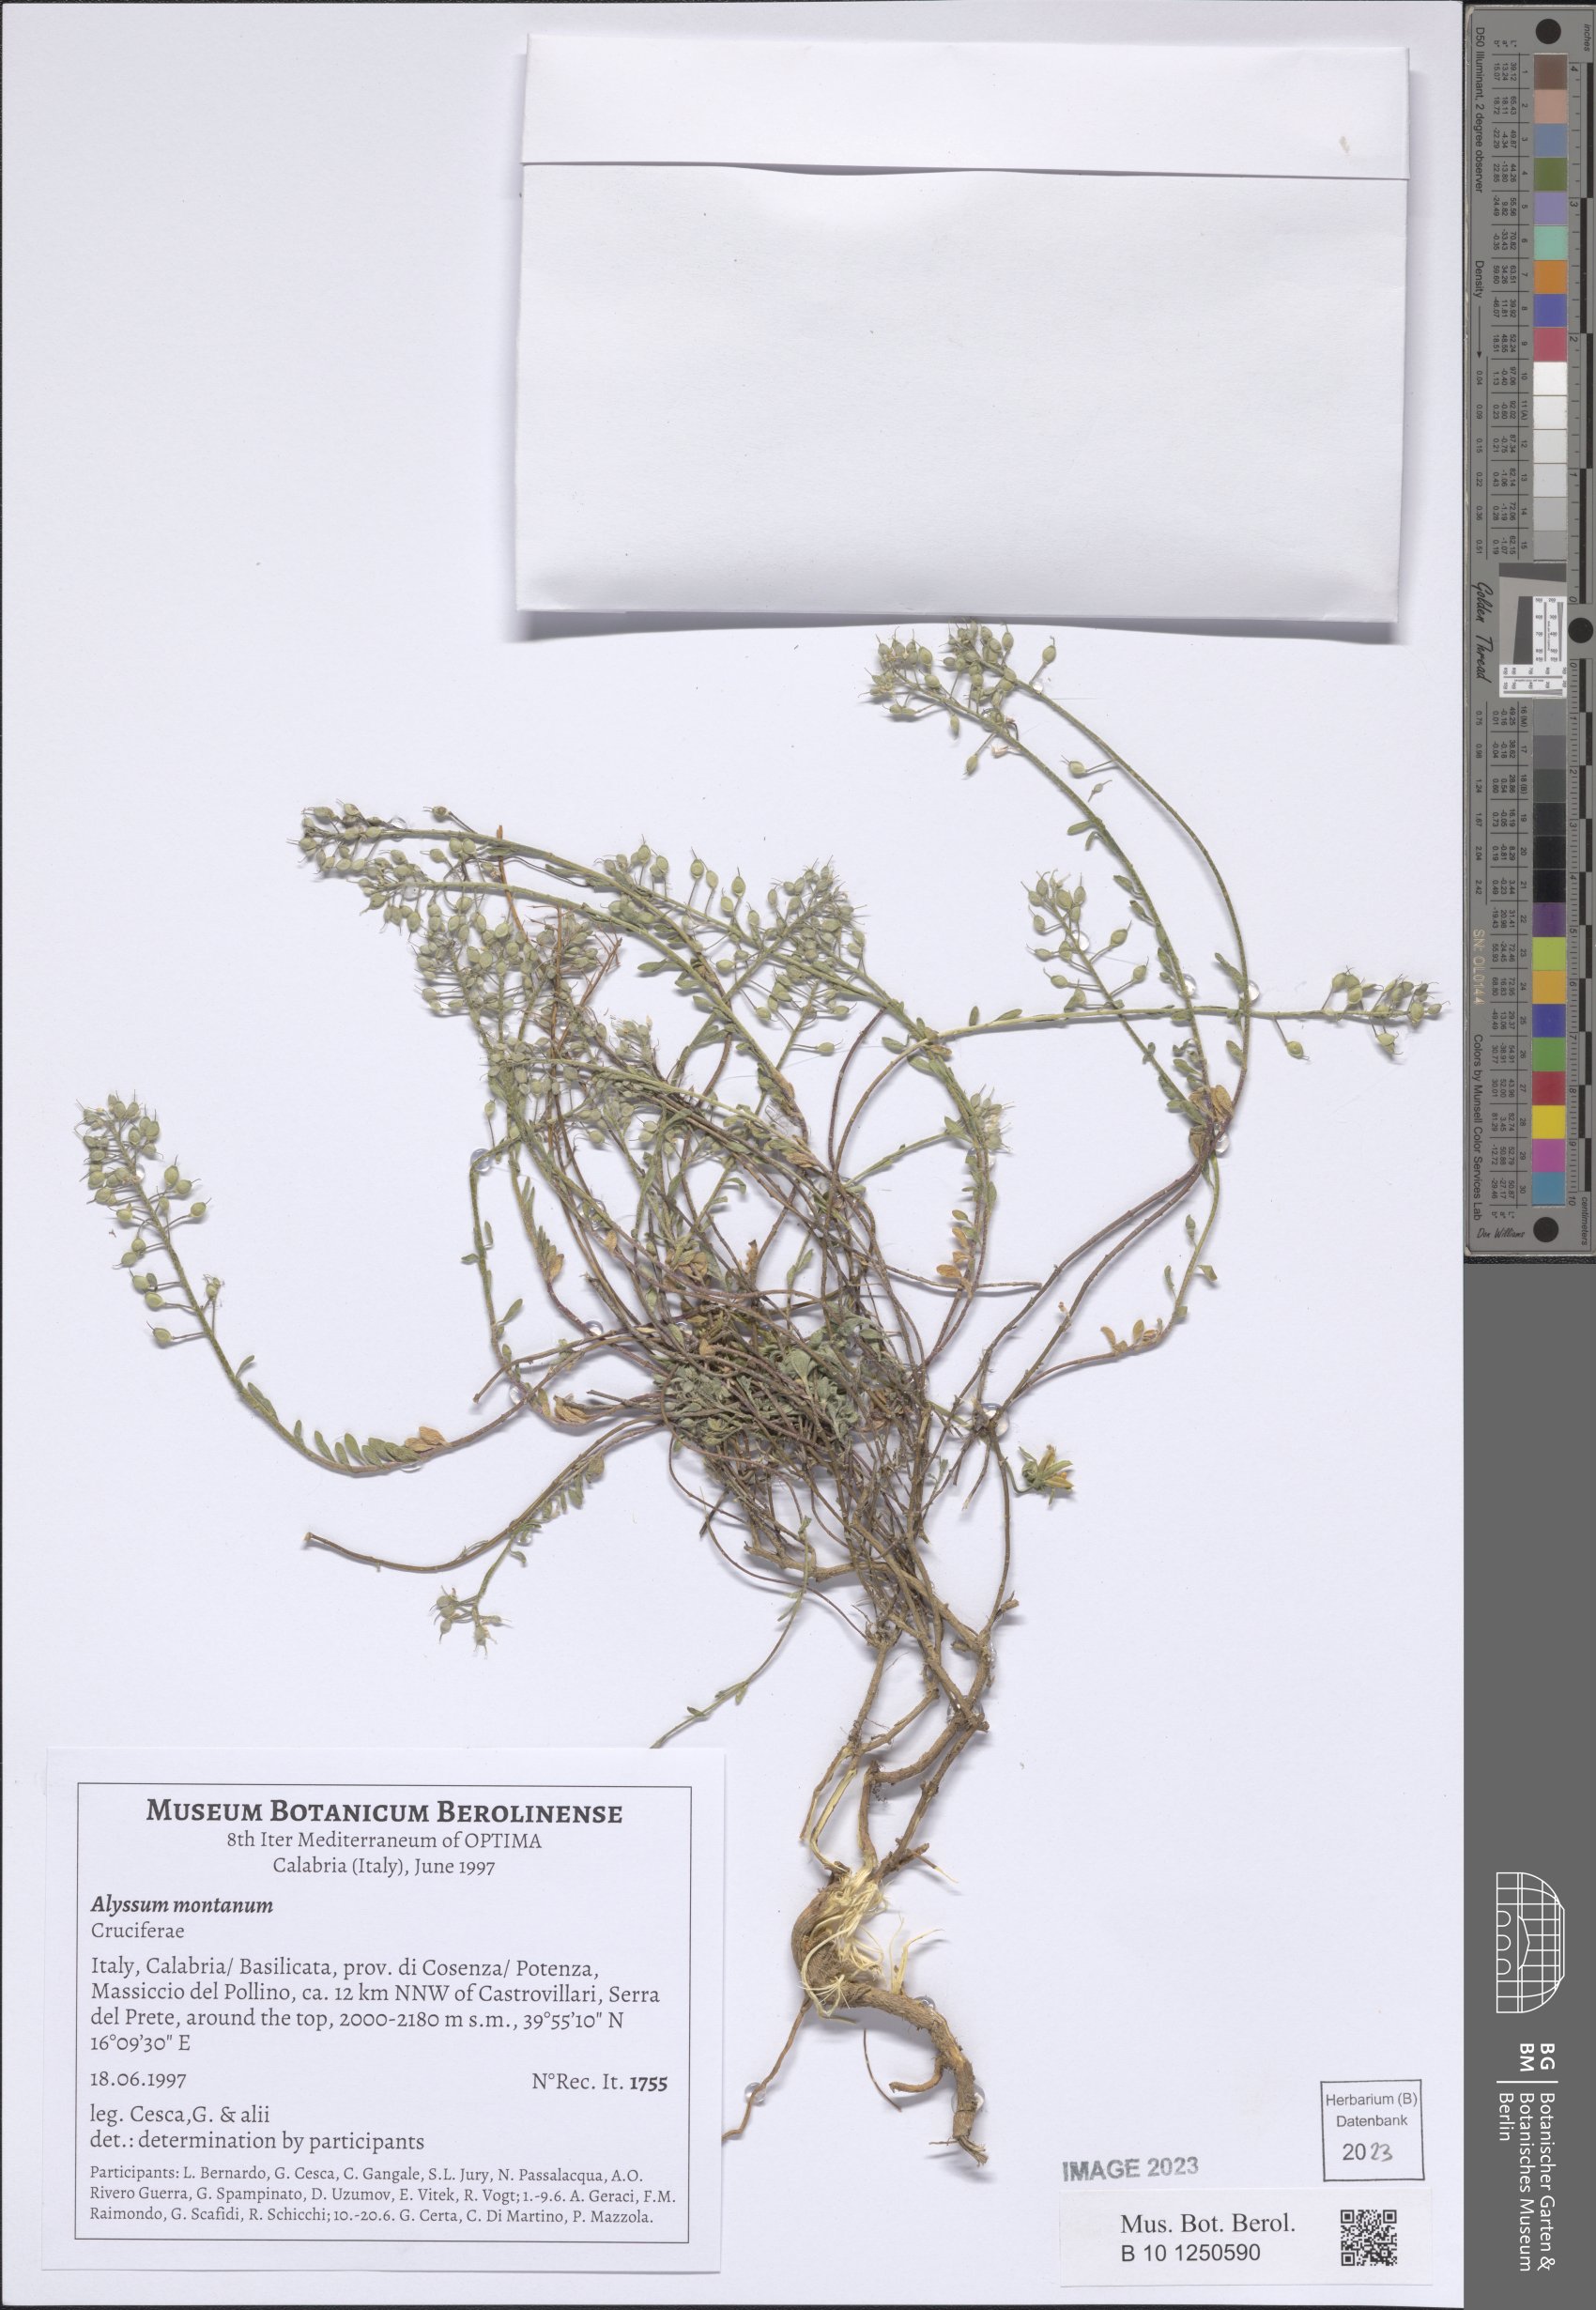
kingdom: Plantae
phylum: Tracheophyta
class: Magnoliopsida
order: Brassicales
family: Brassicaceae
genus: Alyssum
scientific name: Alyssum montanum
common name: Mountain alison
